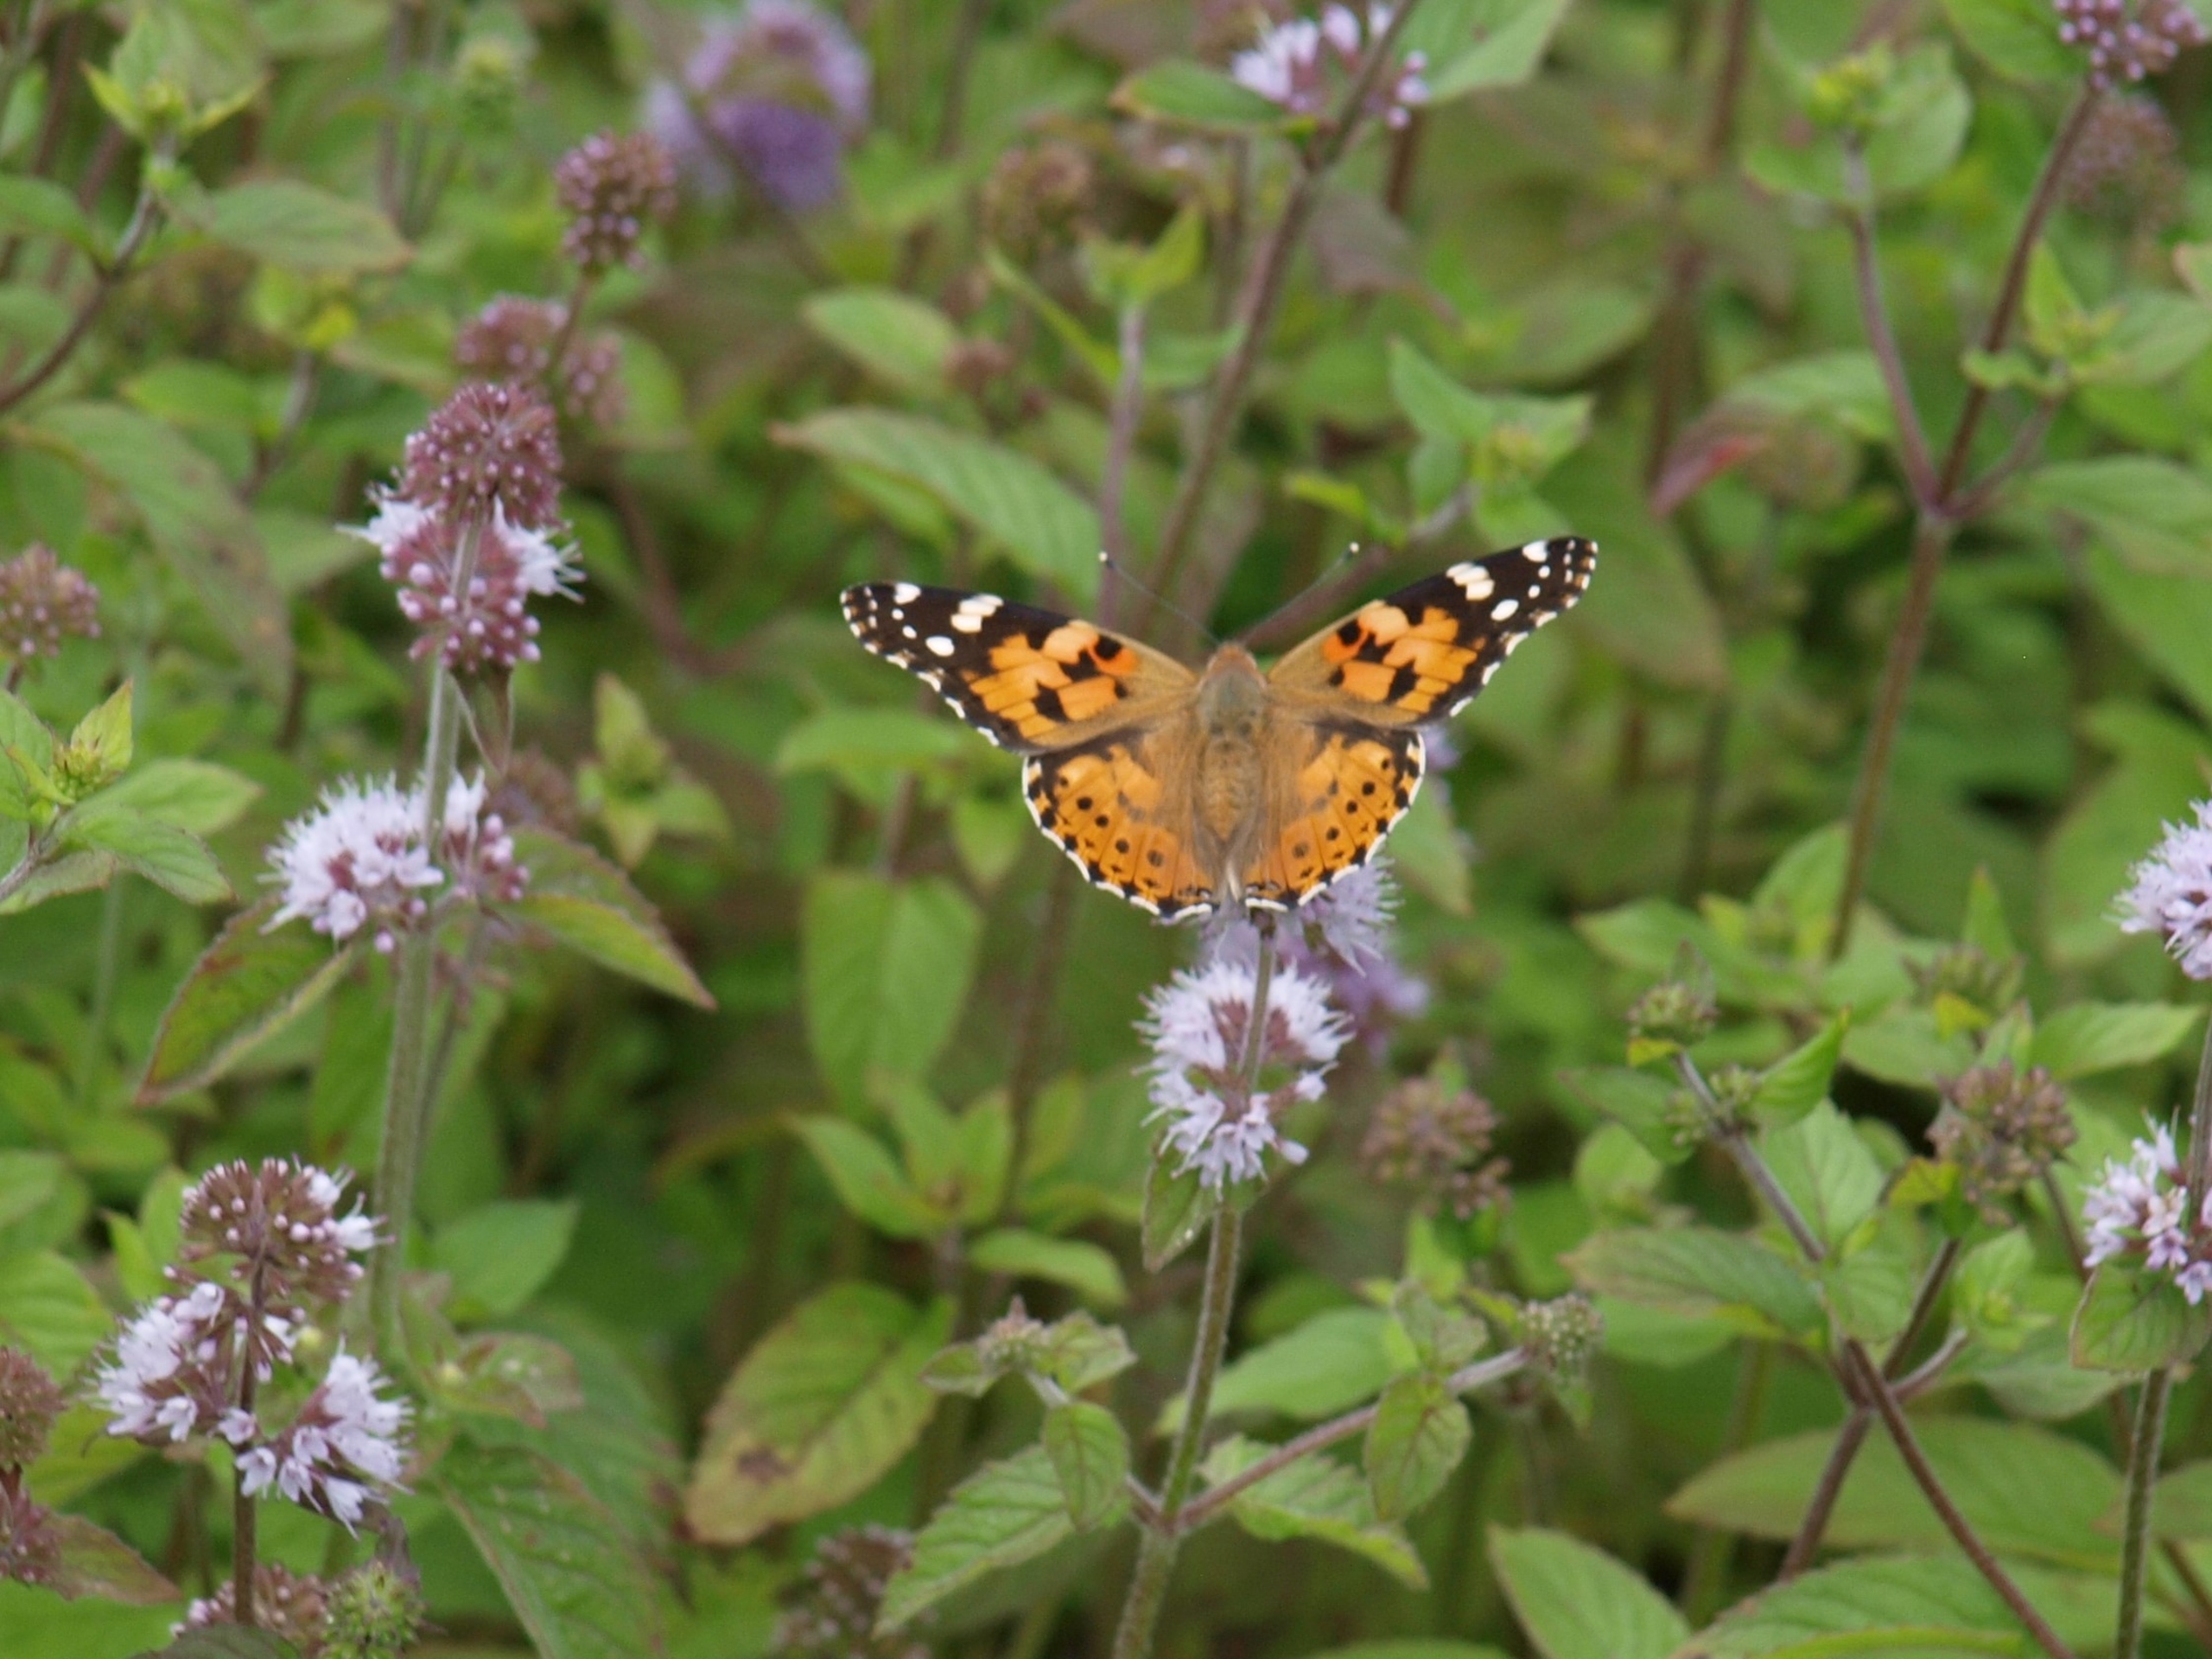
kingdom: Animalia
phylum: Arthropoda
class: Insecta
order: Lepidoptera
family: Nymphalidae
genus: Vanessa
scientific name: Vanessa cardui
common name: Tidselsommerfugl
